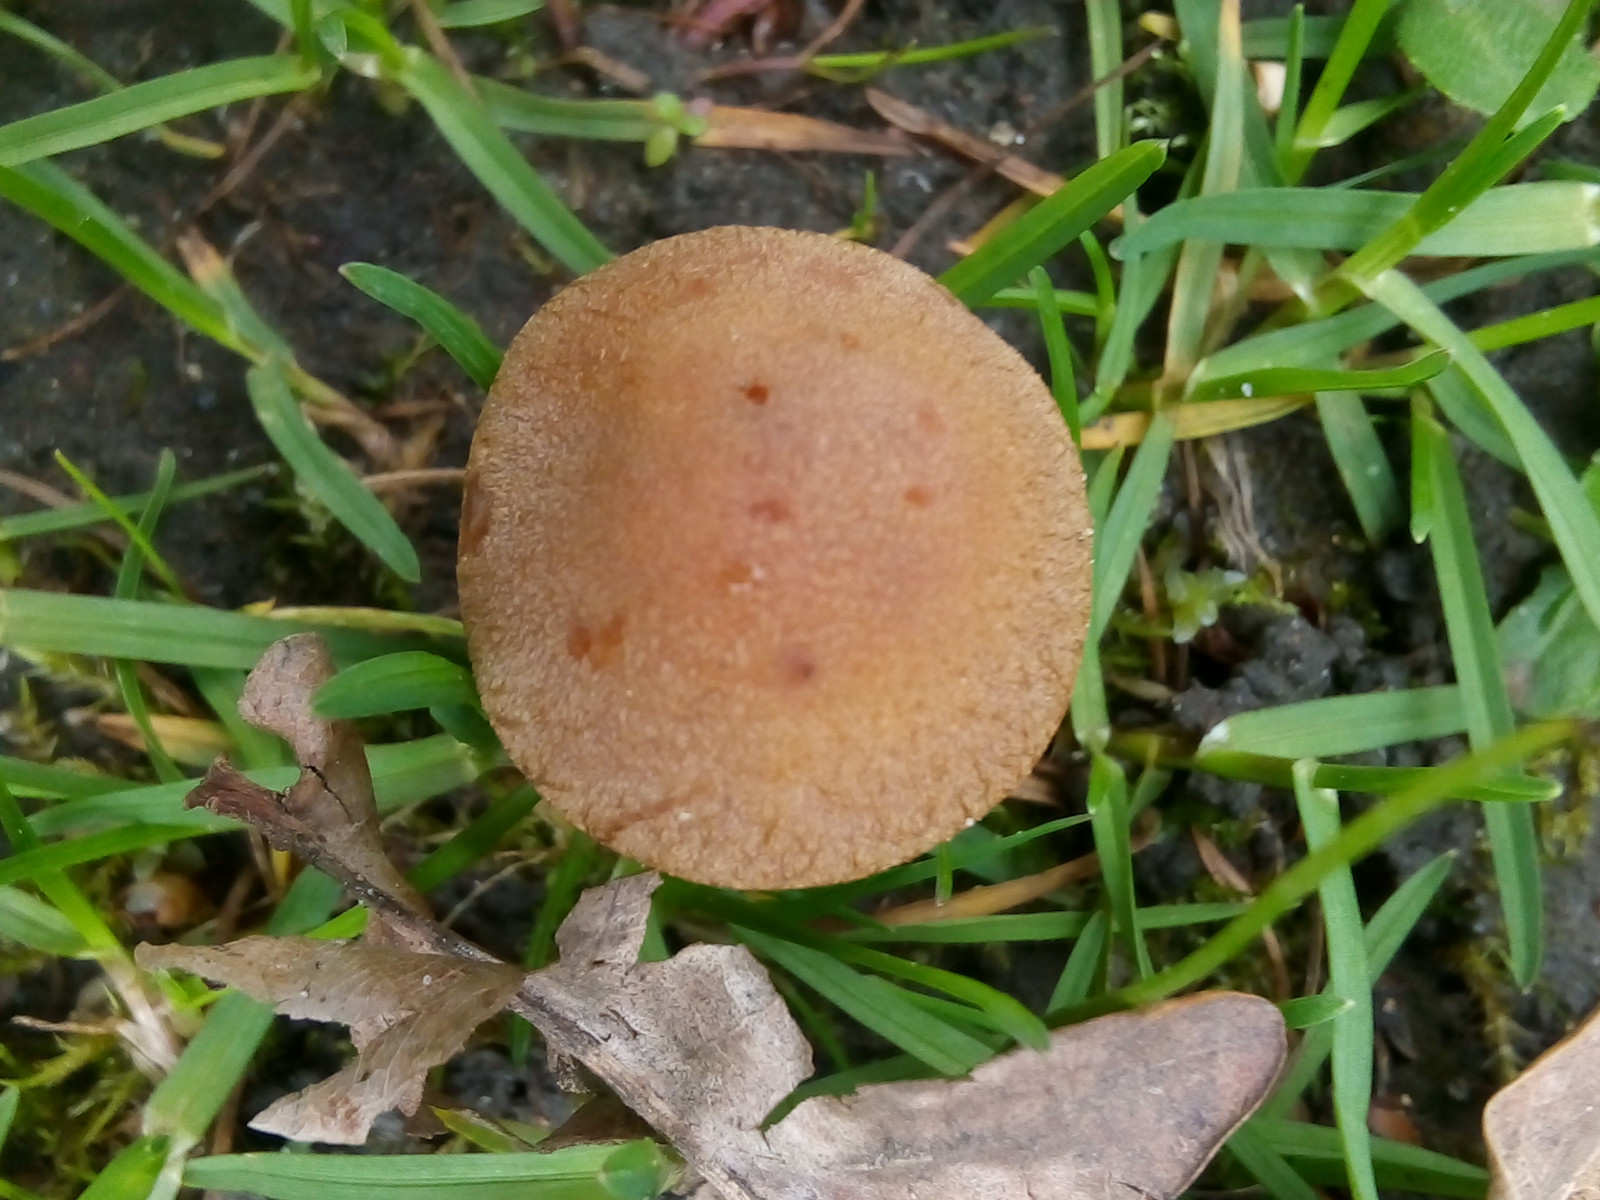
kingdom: Fungi
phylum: Basidiomycota
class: Agaricomycetes
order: Agaricales
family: Psathyrellaceae
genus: Lacrymaria
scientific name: Lacrymaria lacrymabunda
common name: grædende mørkhat
